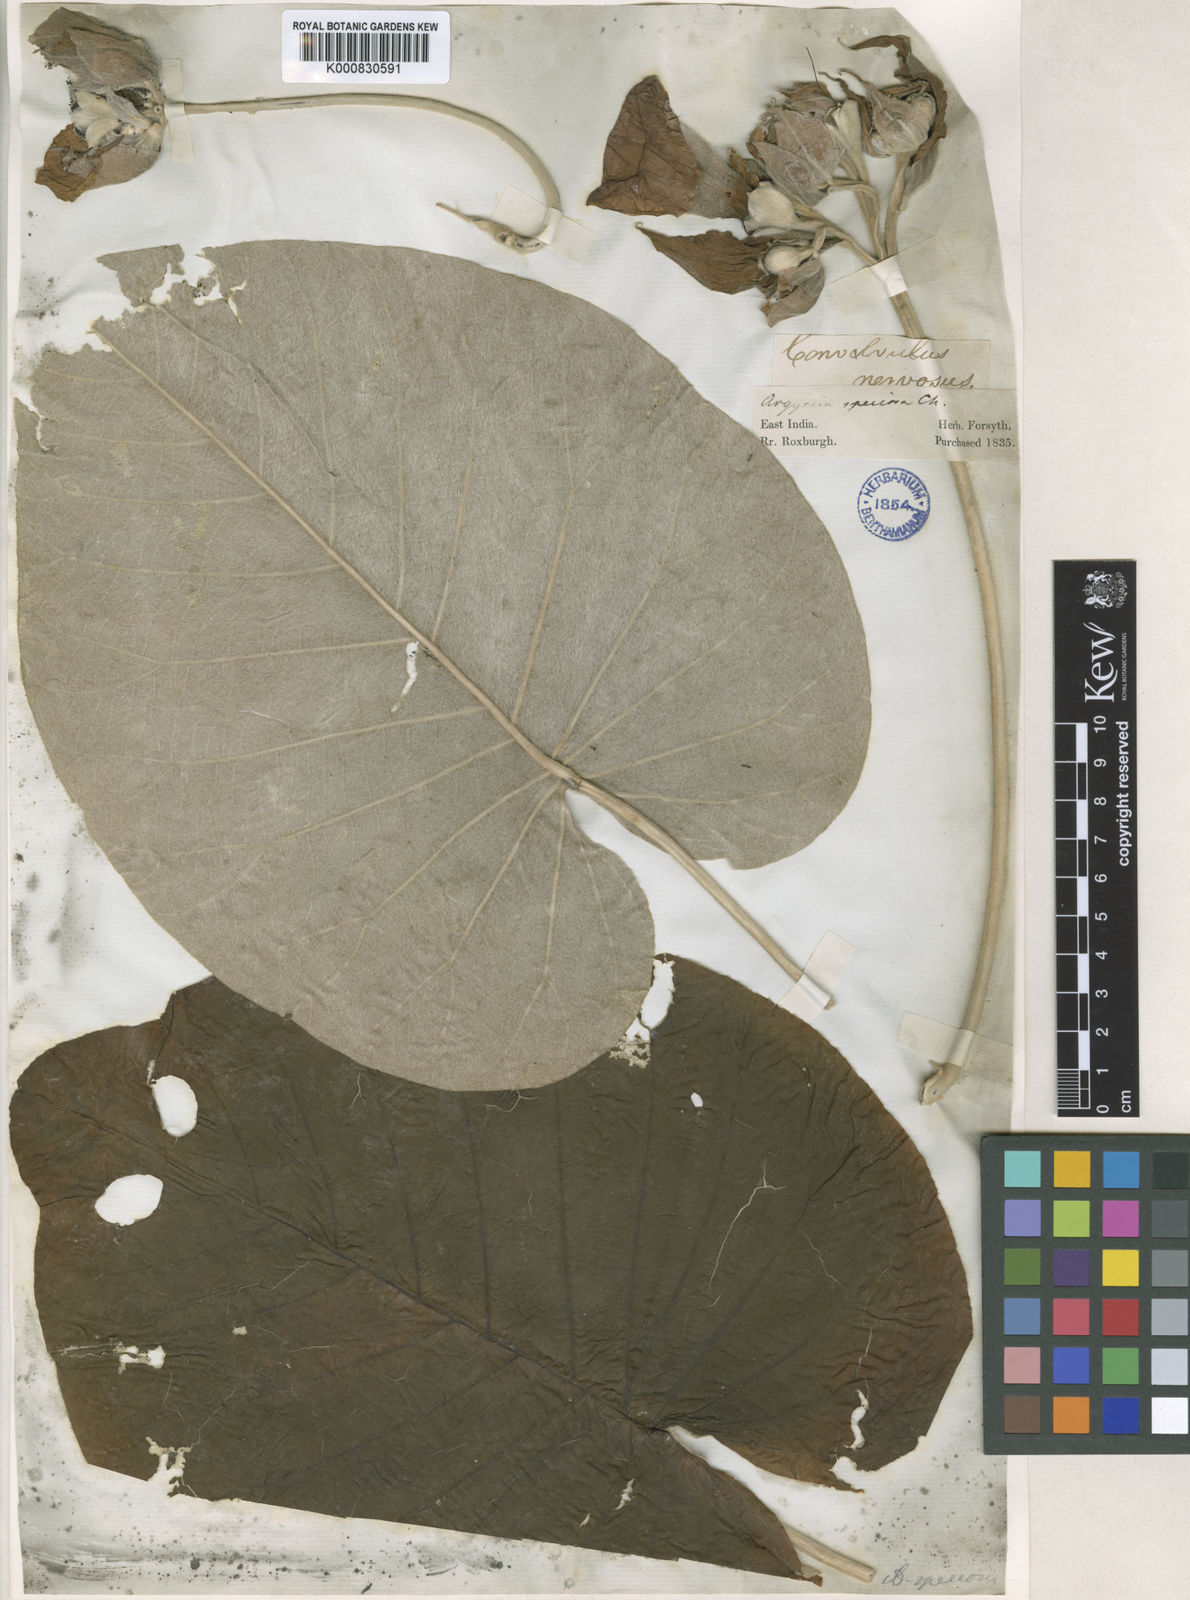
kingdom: Plantae
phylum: Tracheophyta
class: Magnoliopsida
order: Solanales
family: Convolvulaceae
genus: Argyreia
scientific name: Argyreia nervosa
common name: Elephant creeper
